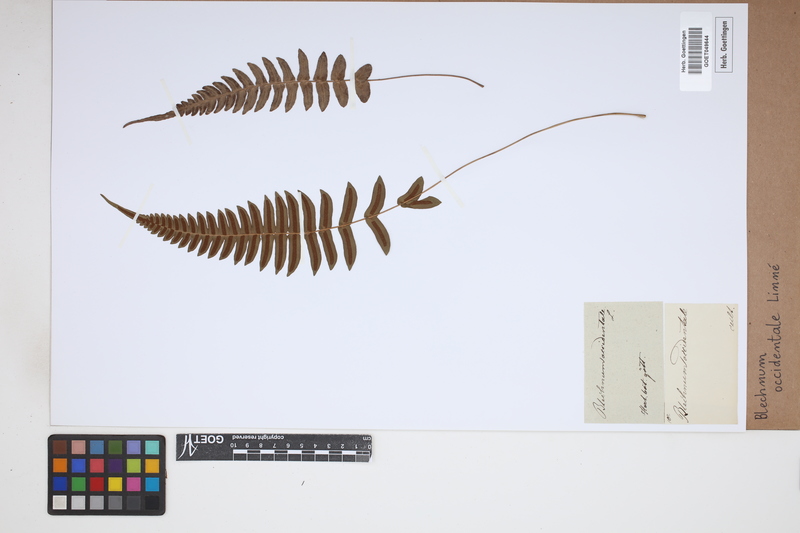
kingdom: Plantae
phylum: Tracheophyta
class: Polypodiopsida
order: Polypodiales
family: Blechnaceae
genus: Blechnum
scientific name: Blechnum occidentale
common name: Hammock fern
